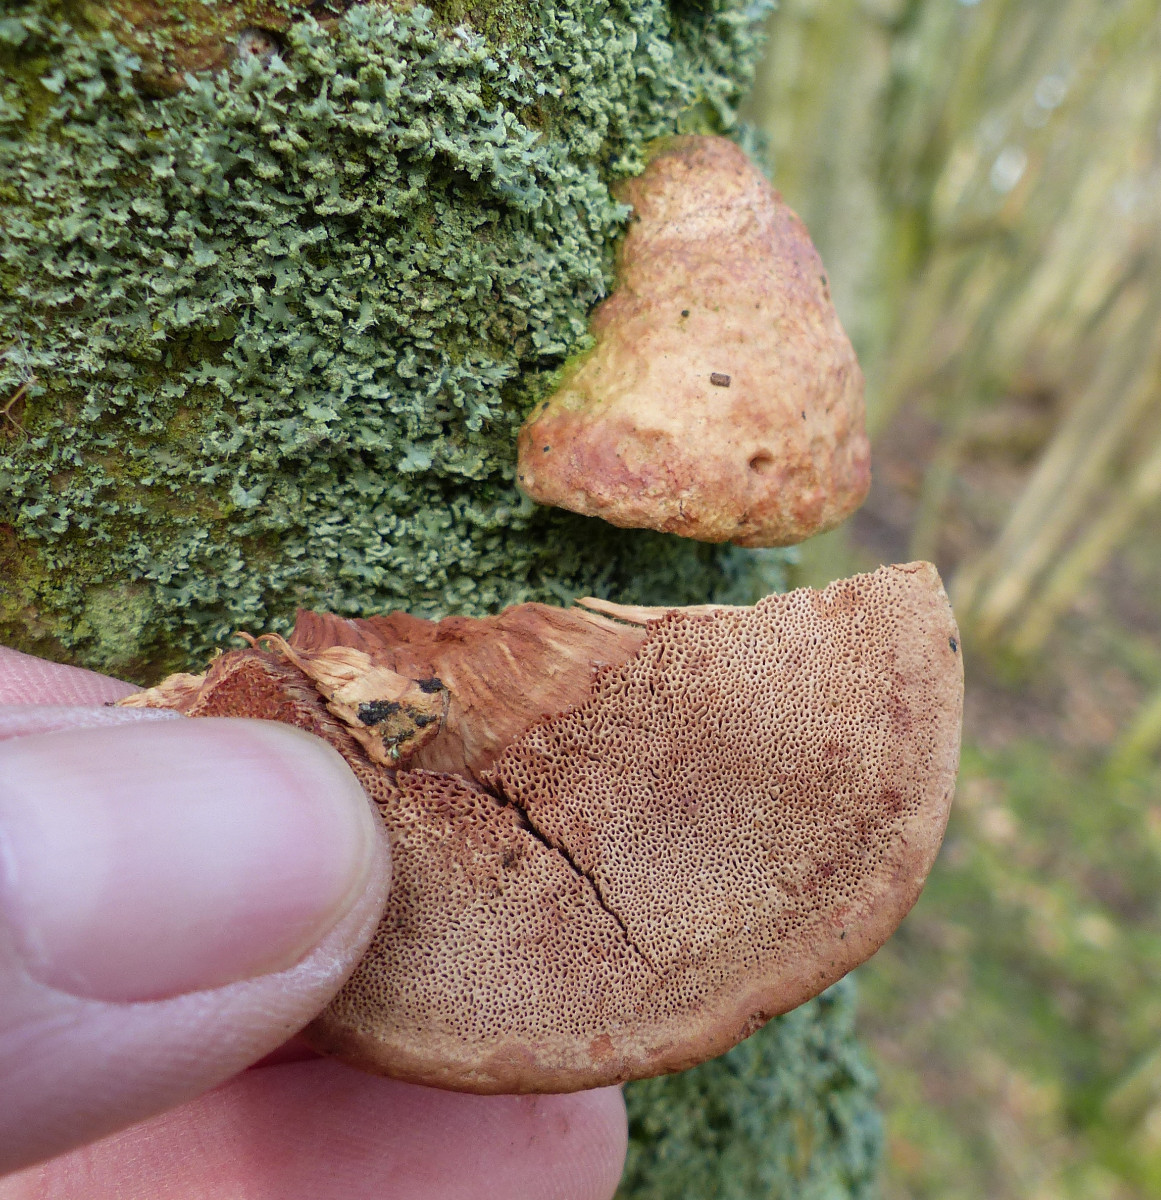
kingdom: Fungi
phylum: Basidiomycota
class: Agaricomycetes
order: Polyporales
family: Phanerochaetaceae
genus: Hapalopilus
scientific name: Hapalopilus rutilans
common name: rødlig okkerporesvamp
